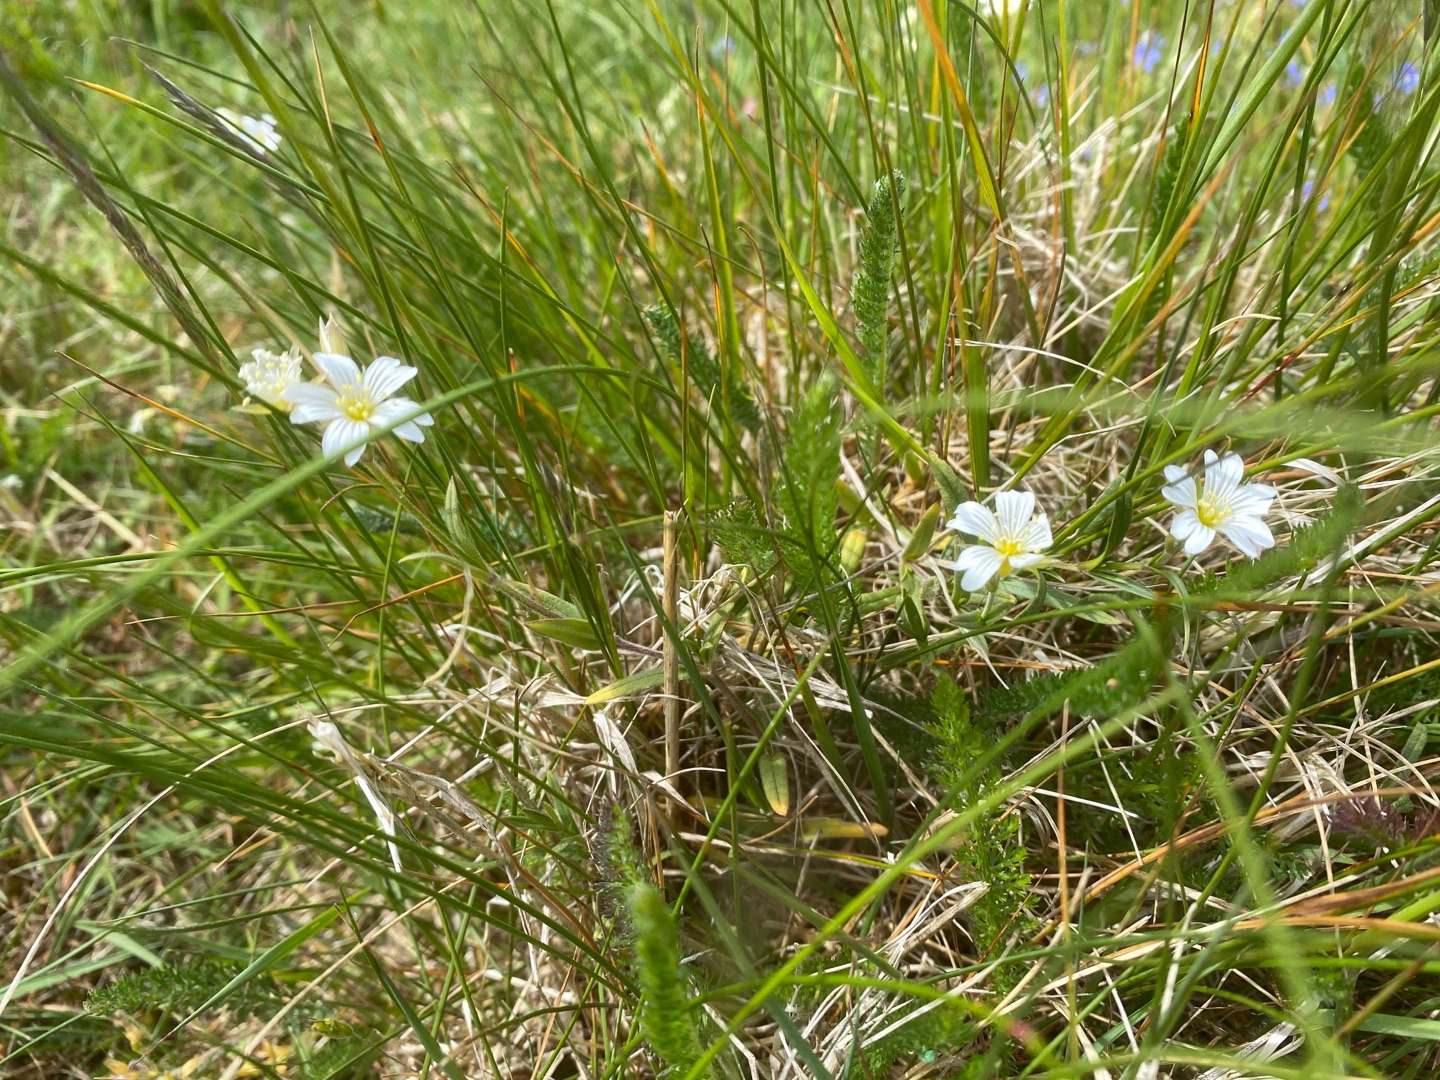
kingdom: Plantae
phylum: Tracheophyta
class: Magnoliopsida
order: Caryophyllales
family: Caryophyllaceae
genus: Cerastium
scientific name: Cerastium
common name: Storblomstret hønsetarm × filtet hønsetarm
